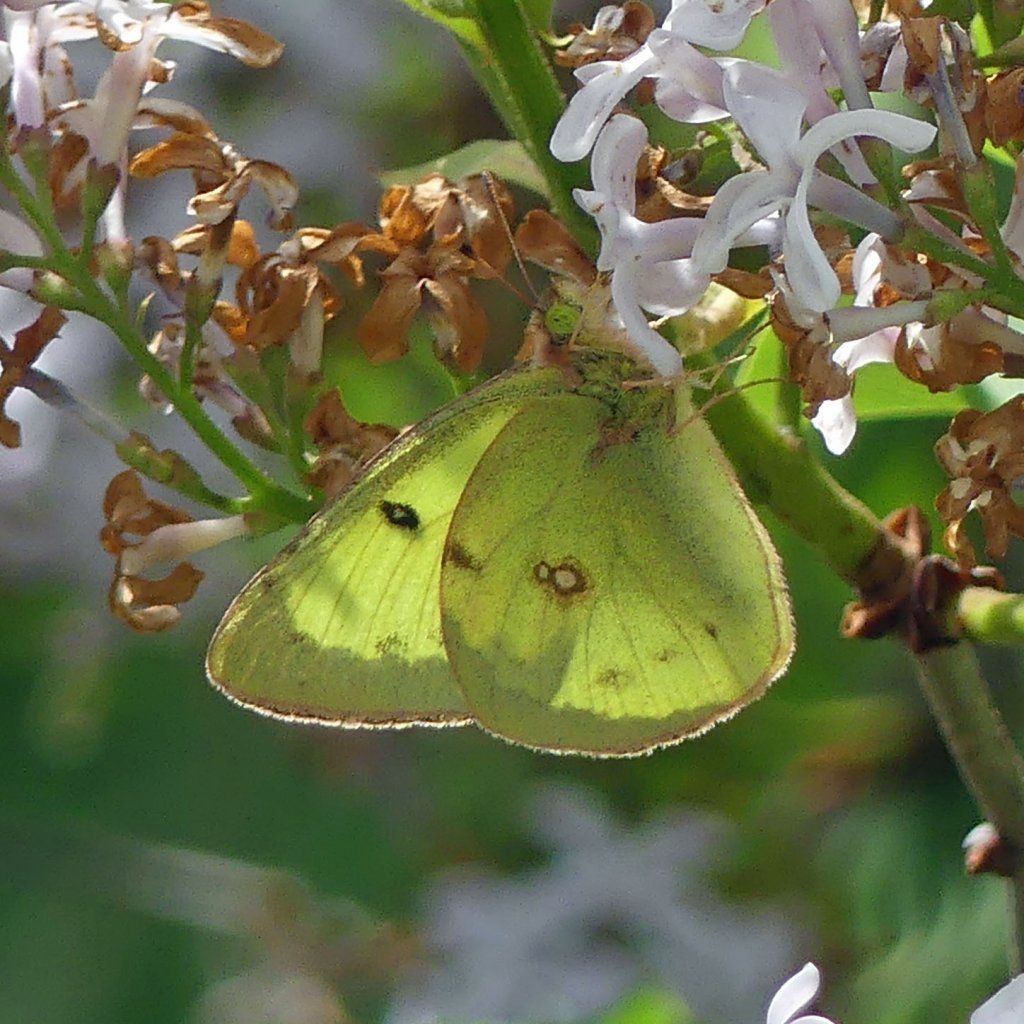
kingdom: Animalia
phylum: Arthropoda
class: Insecta
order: Lepidoptera
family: Pieridae
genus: Colias
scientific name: Colias philodice
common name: Clouded Sulphur
